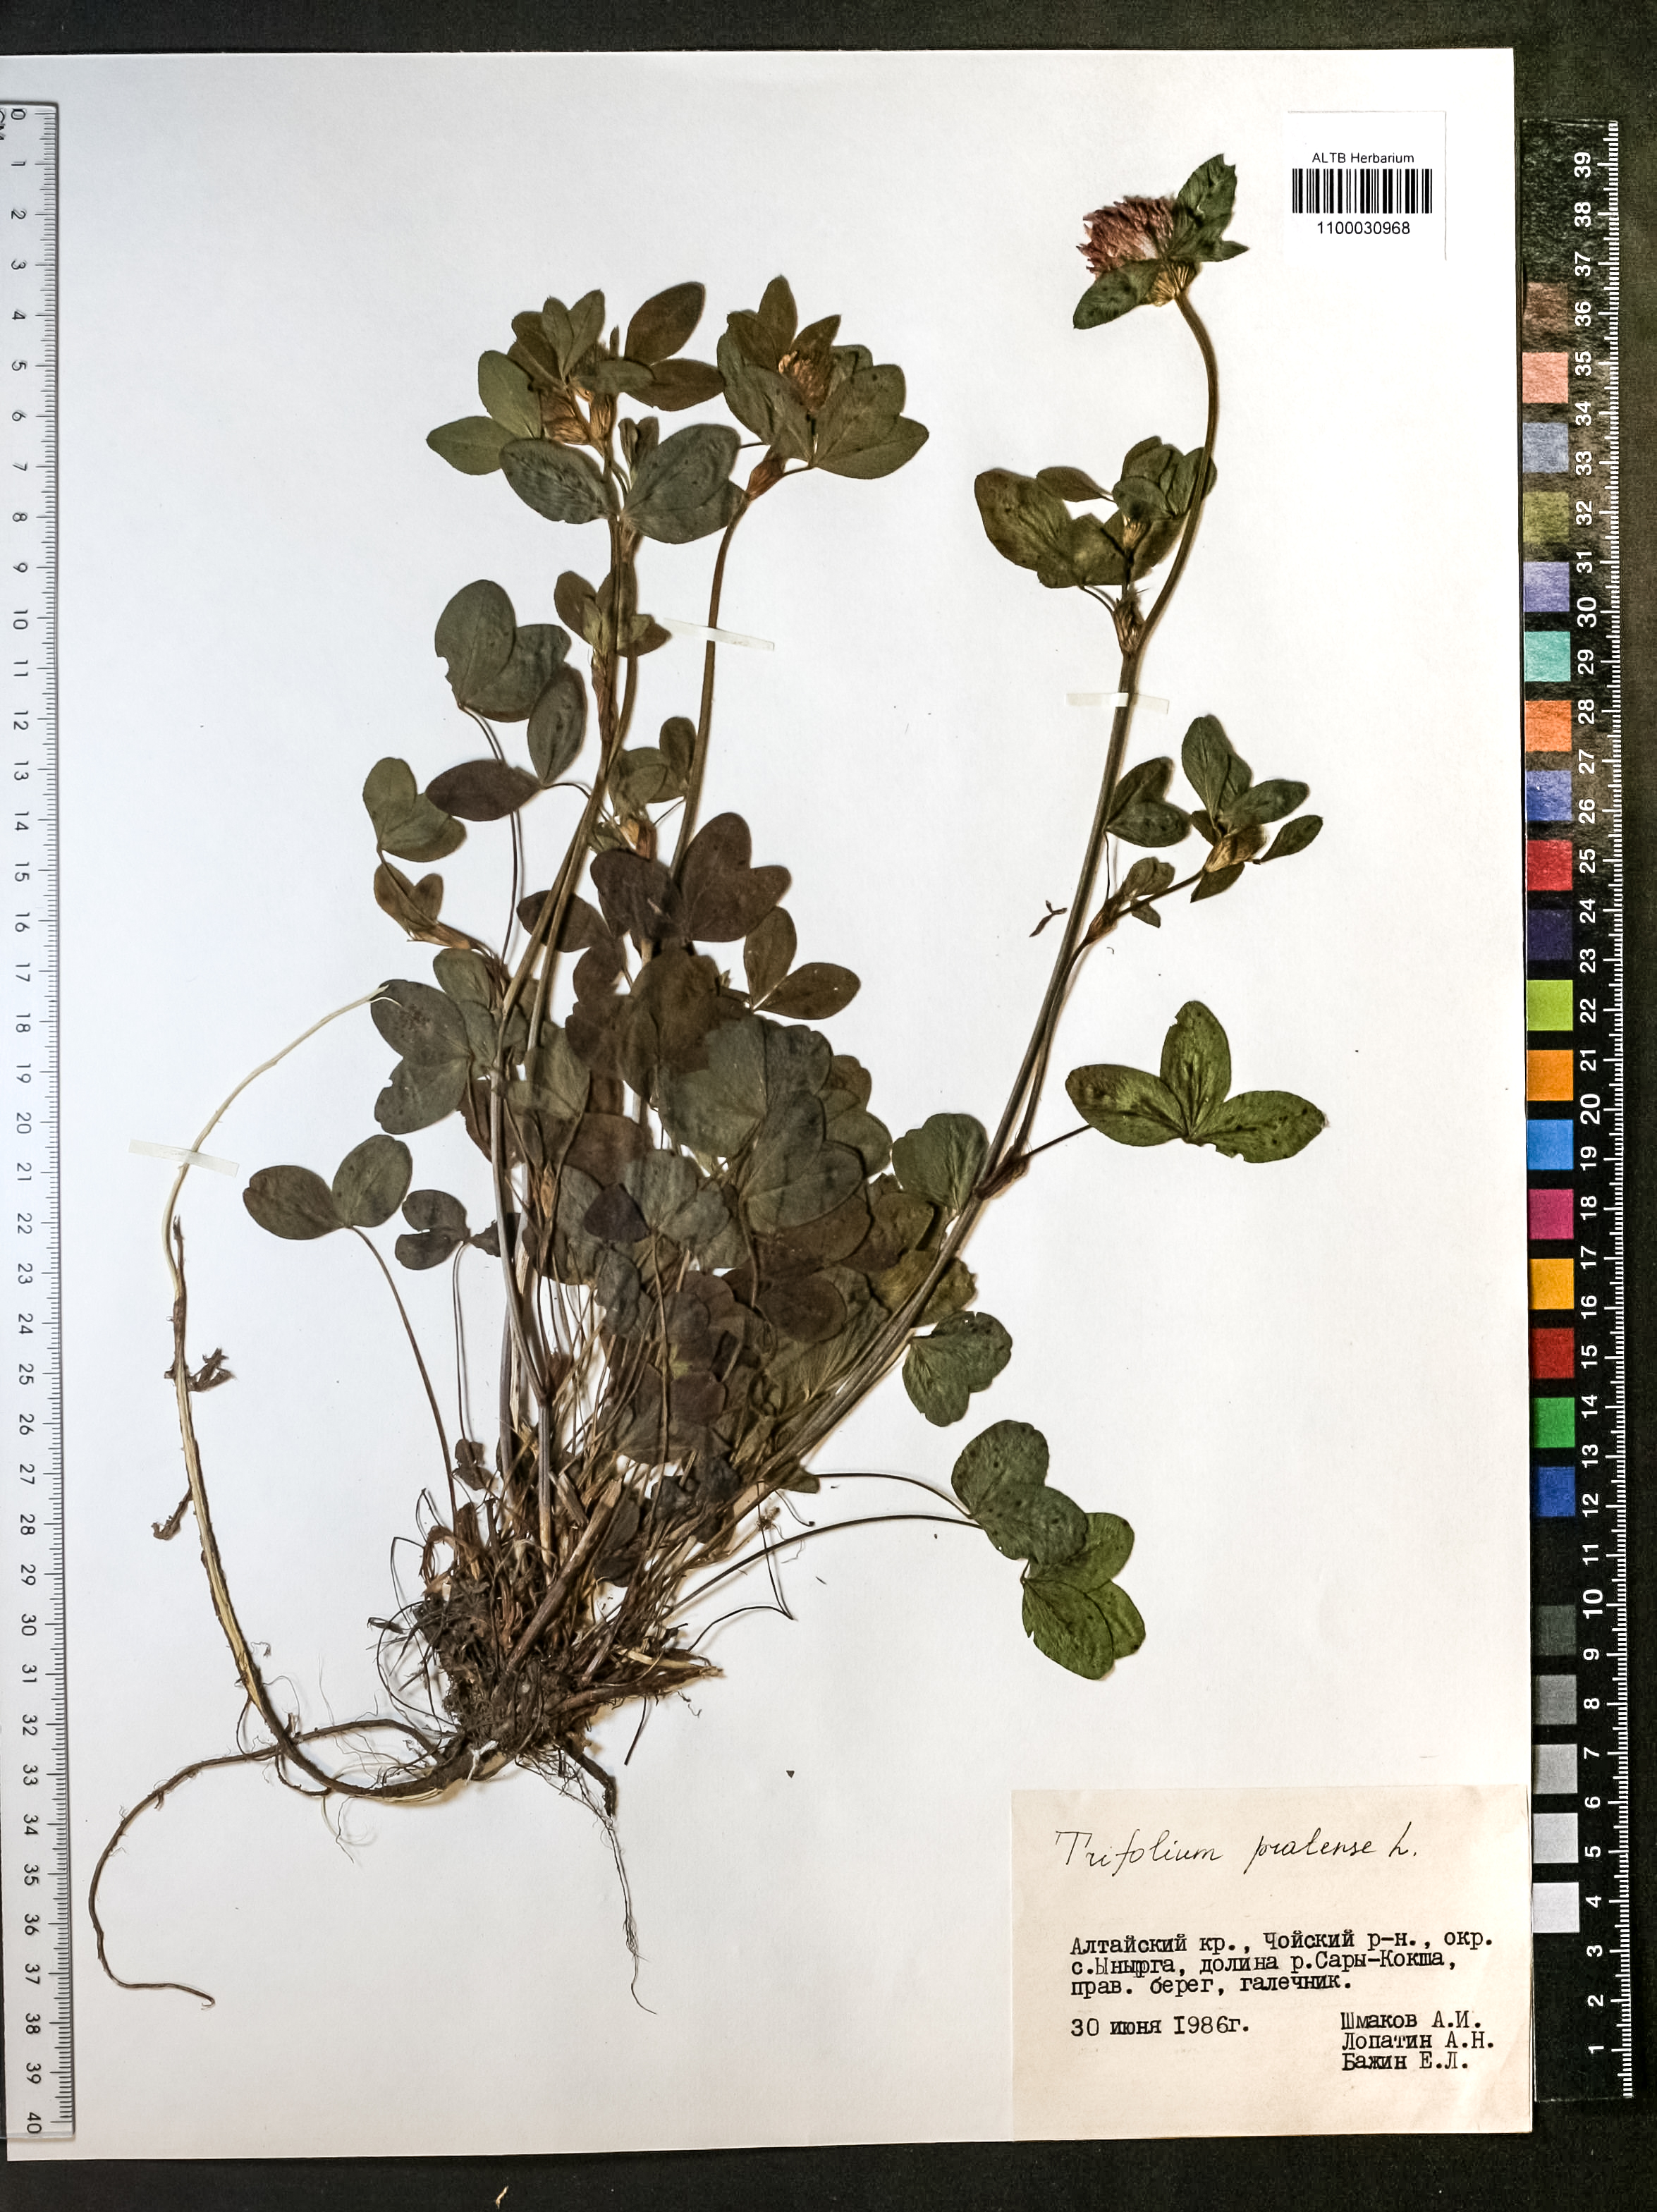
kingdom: Plantae
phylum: Tracheophyta
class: Magnoliopsida
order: Fabales
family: Fabaceae
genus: Trifolium
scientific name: Trifolium pratense
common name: Red clover
